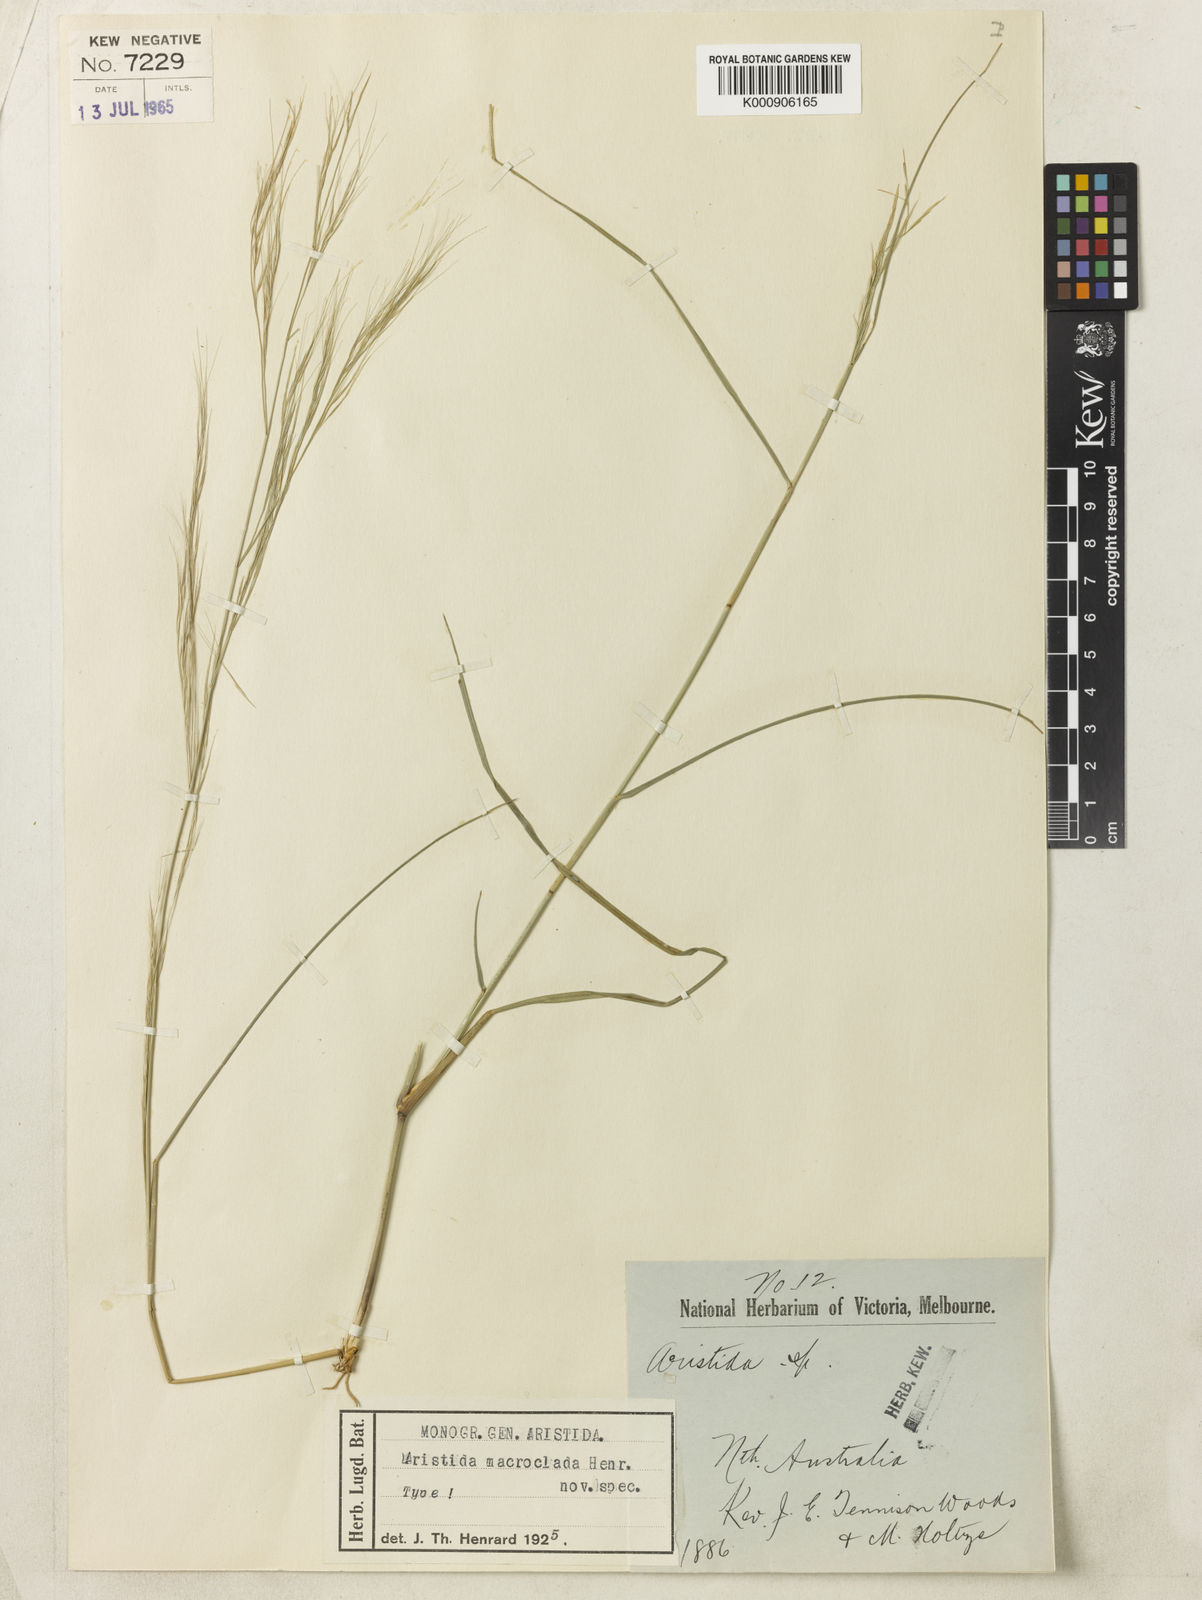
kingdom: Plantae
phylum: Tracheophyta
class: Liliopsida
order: Poales
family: Poaceae
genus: Aristida
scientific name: Aristida macroclada
